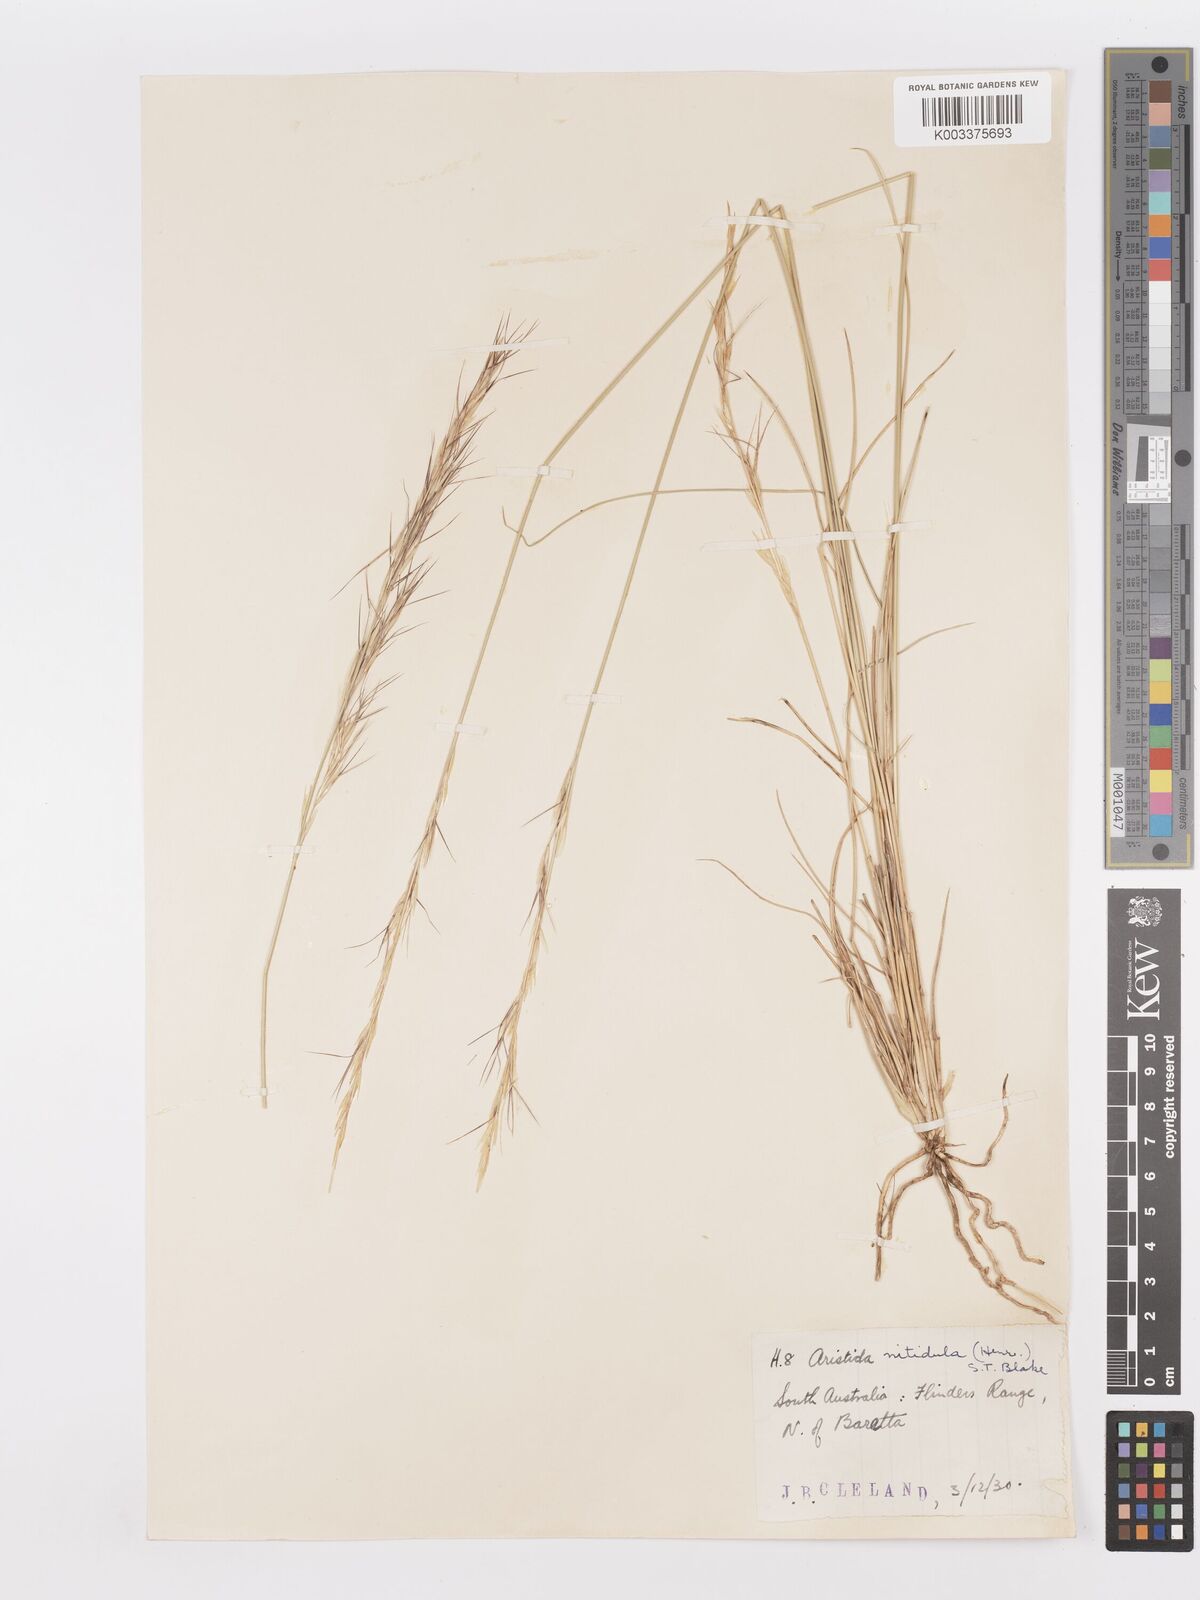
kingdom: Plantae
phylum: Tracheophyta
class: Liliopsida
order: Poales
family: Poaceae
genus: Aristida
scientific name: Aristida nitidula
